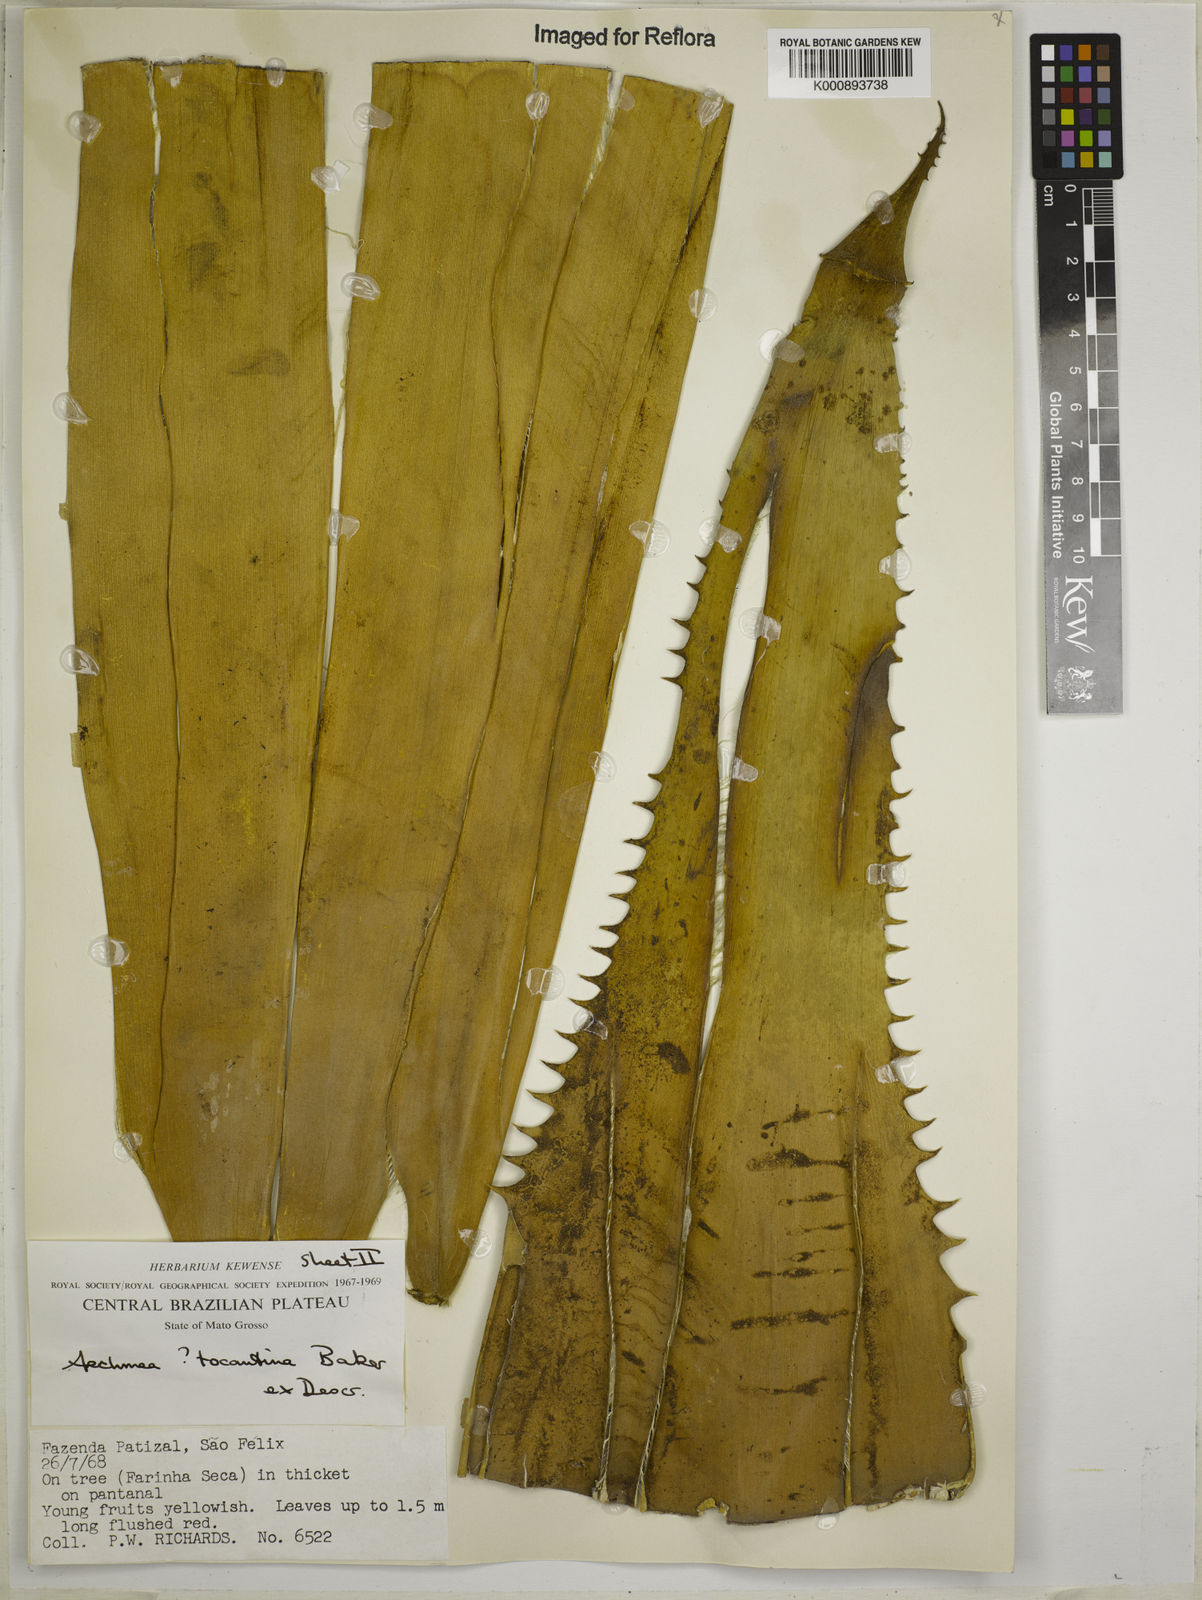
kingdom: Plantae
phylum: Tracheophyta
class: Liliopsida
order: Poales
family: Bromeliaceae
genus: Aechmea
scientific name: Aechmea tocantina
